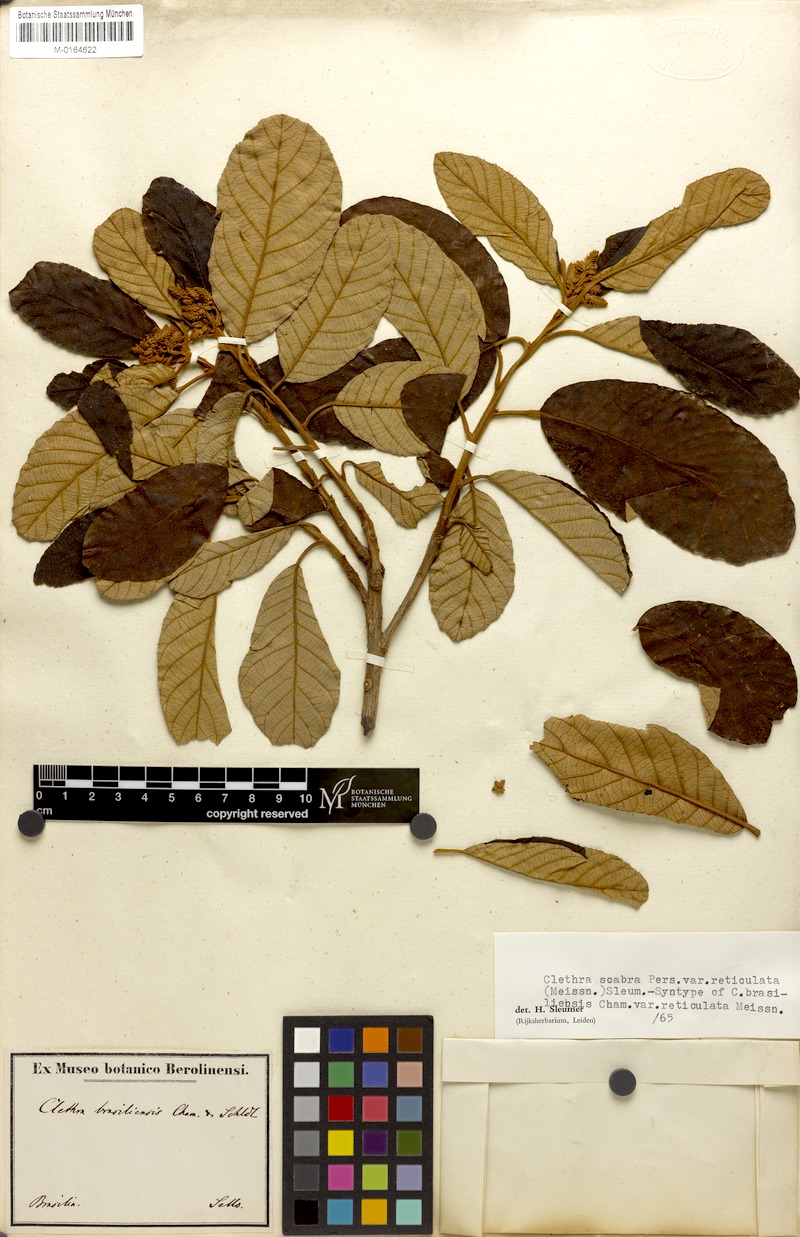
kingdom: Plantae
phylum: Tracheophyta
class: Magnoliopsida
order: Ericales
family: Clethraceae
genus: Clethra
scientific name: Clethra scabra
